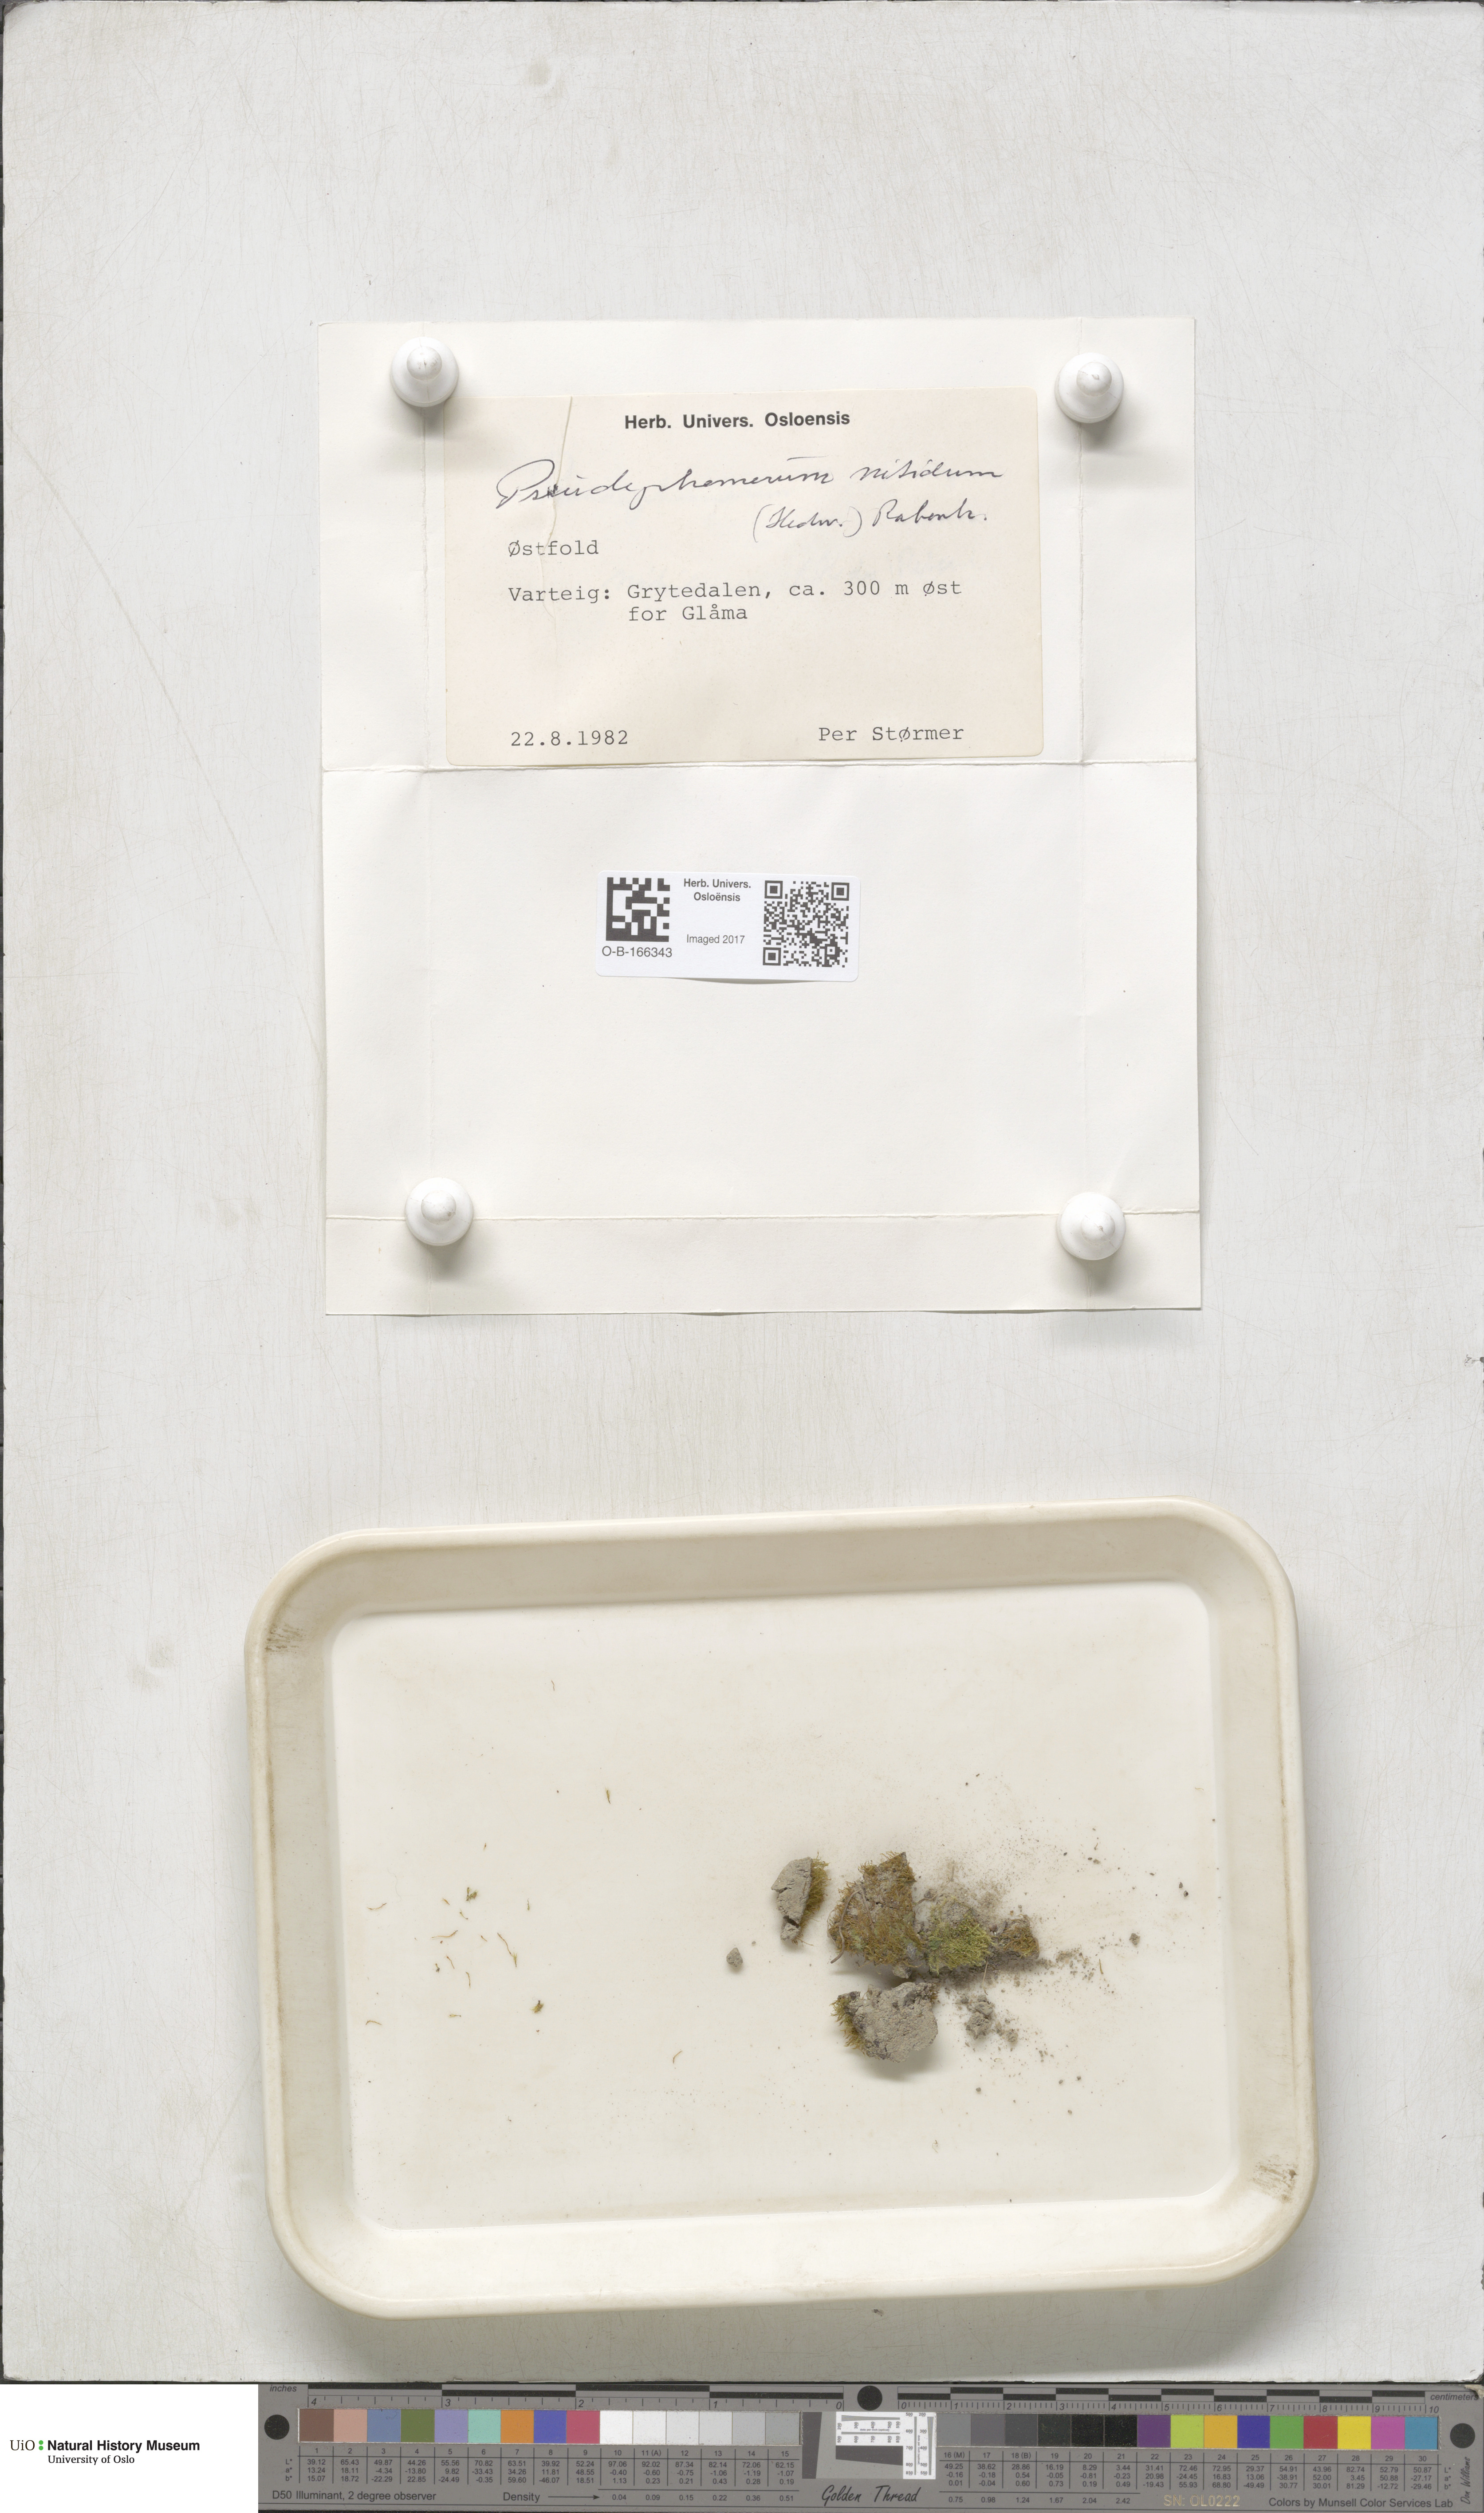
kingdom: Plantae
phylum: Bryophyta
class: Bryopsida
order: Dicranales
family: Ditrichaceae
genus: Pseudephemerum
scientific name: Pseudephemerum nitidum
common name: Delicate earth-moss
